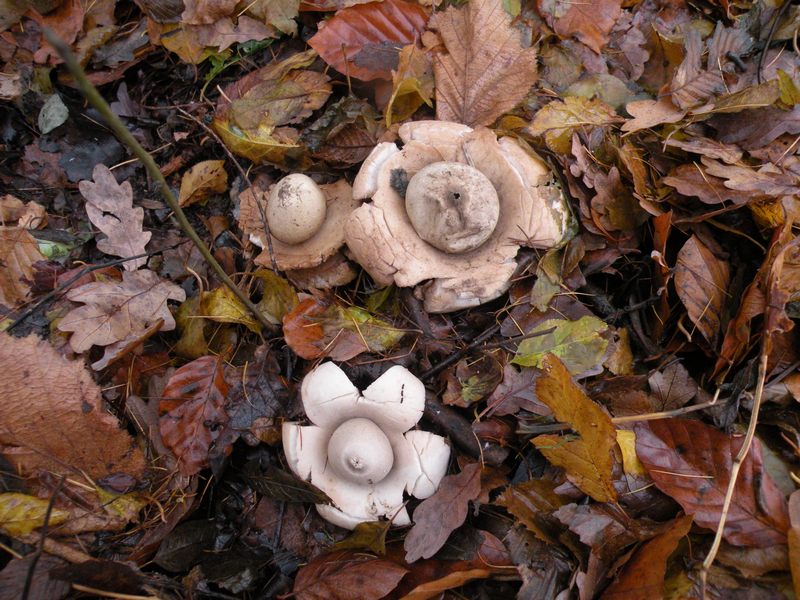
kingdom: Fungi
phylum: Basidiomycota
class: Agaricomycetes
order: Geastrales
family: Geastraceae
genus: Geastrum
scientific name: Geastrum michelianum
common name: kødet stjernebold
